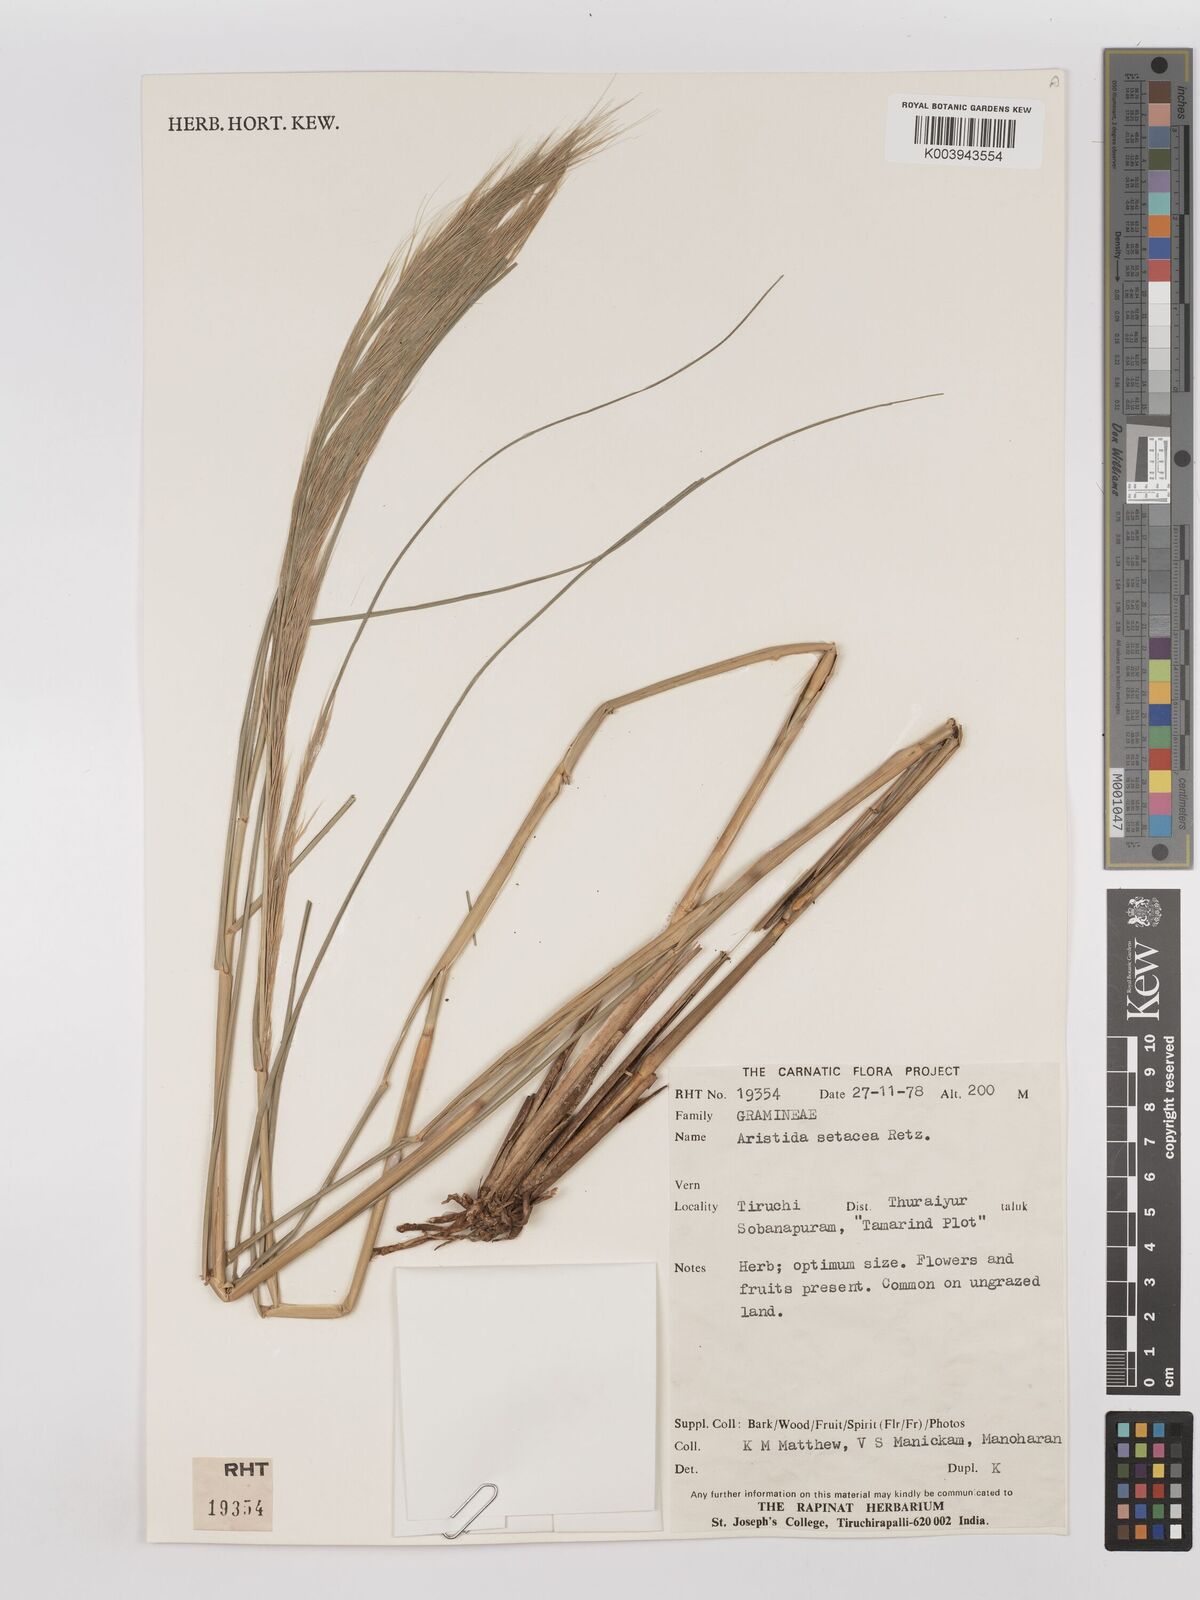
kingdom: Plantae
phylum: Tracheophyta
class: Liliopsida
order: Poales
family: Poaceae
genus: Aristida
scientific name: Aristida setacea
